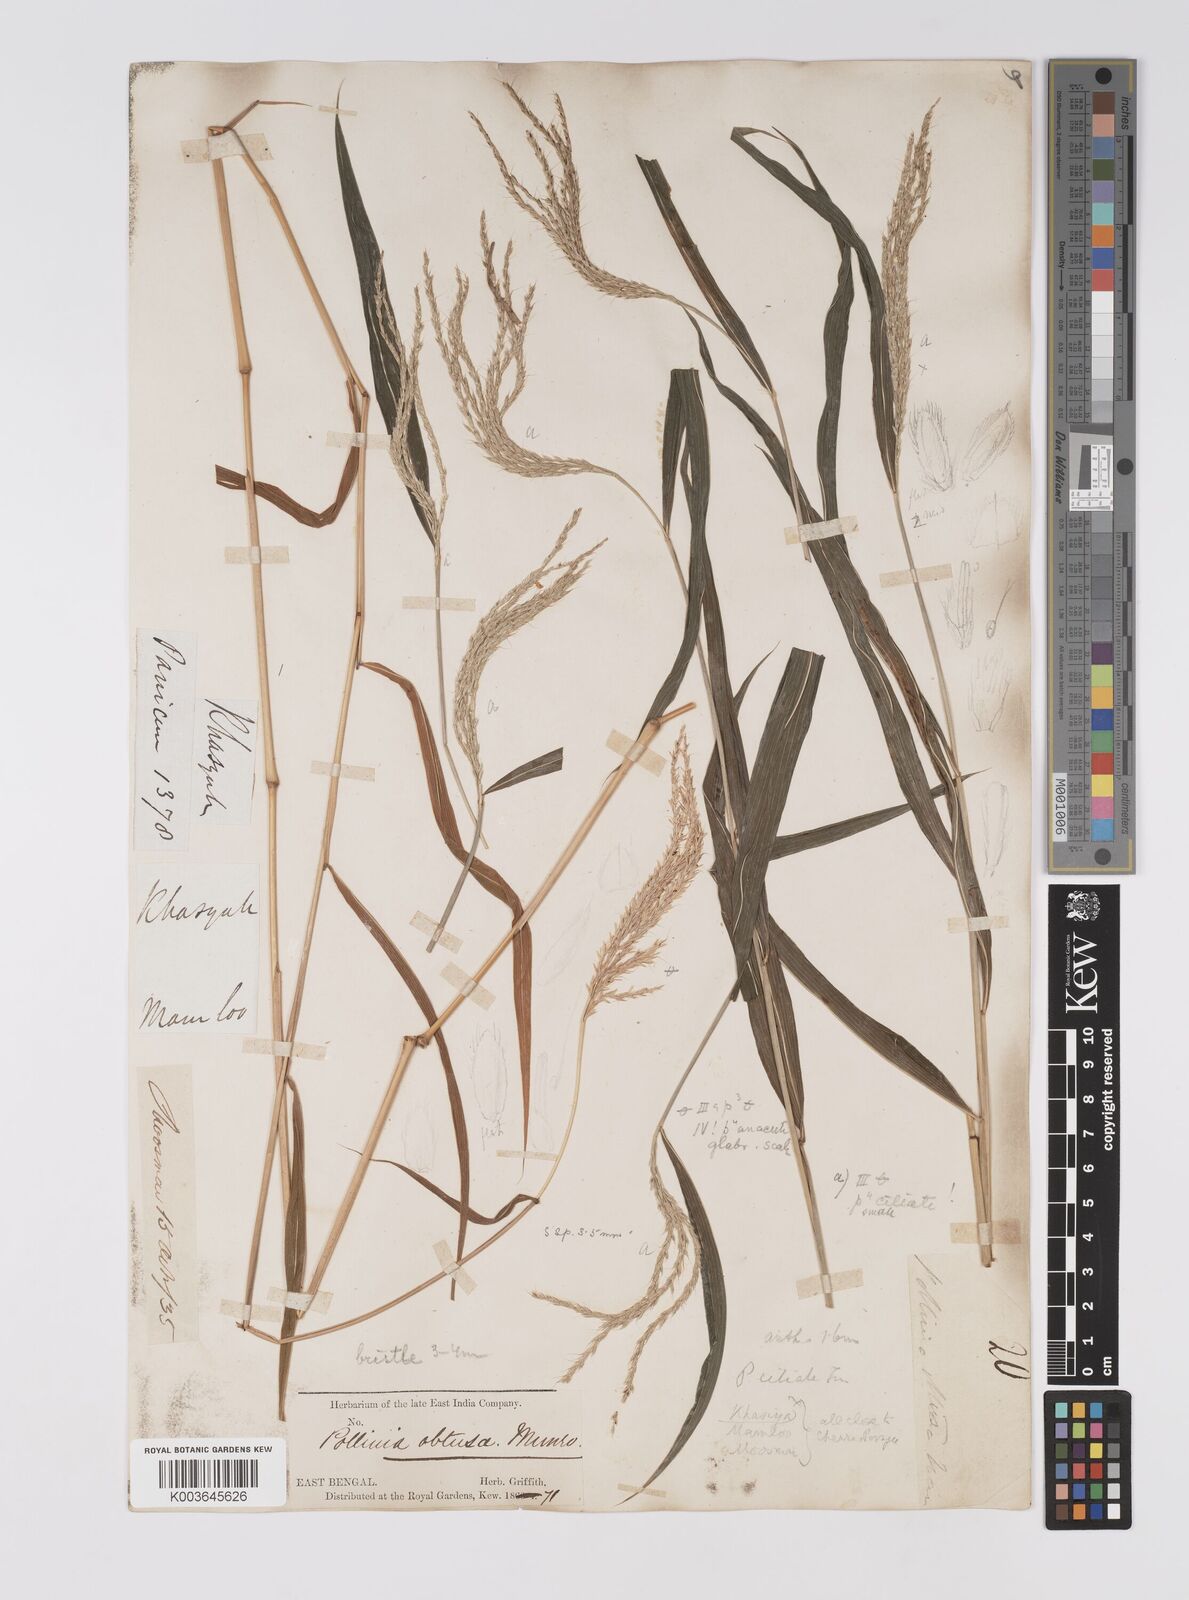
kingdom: Plantae
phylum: Tracheophyta
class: Liliopsida
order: Poales
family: Poaceae
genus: Microstegium
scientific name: Microstegium fasciculatum
